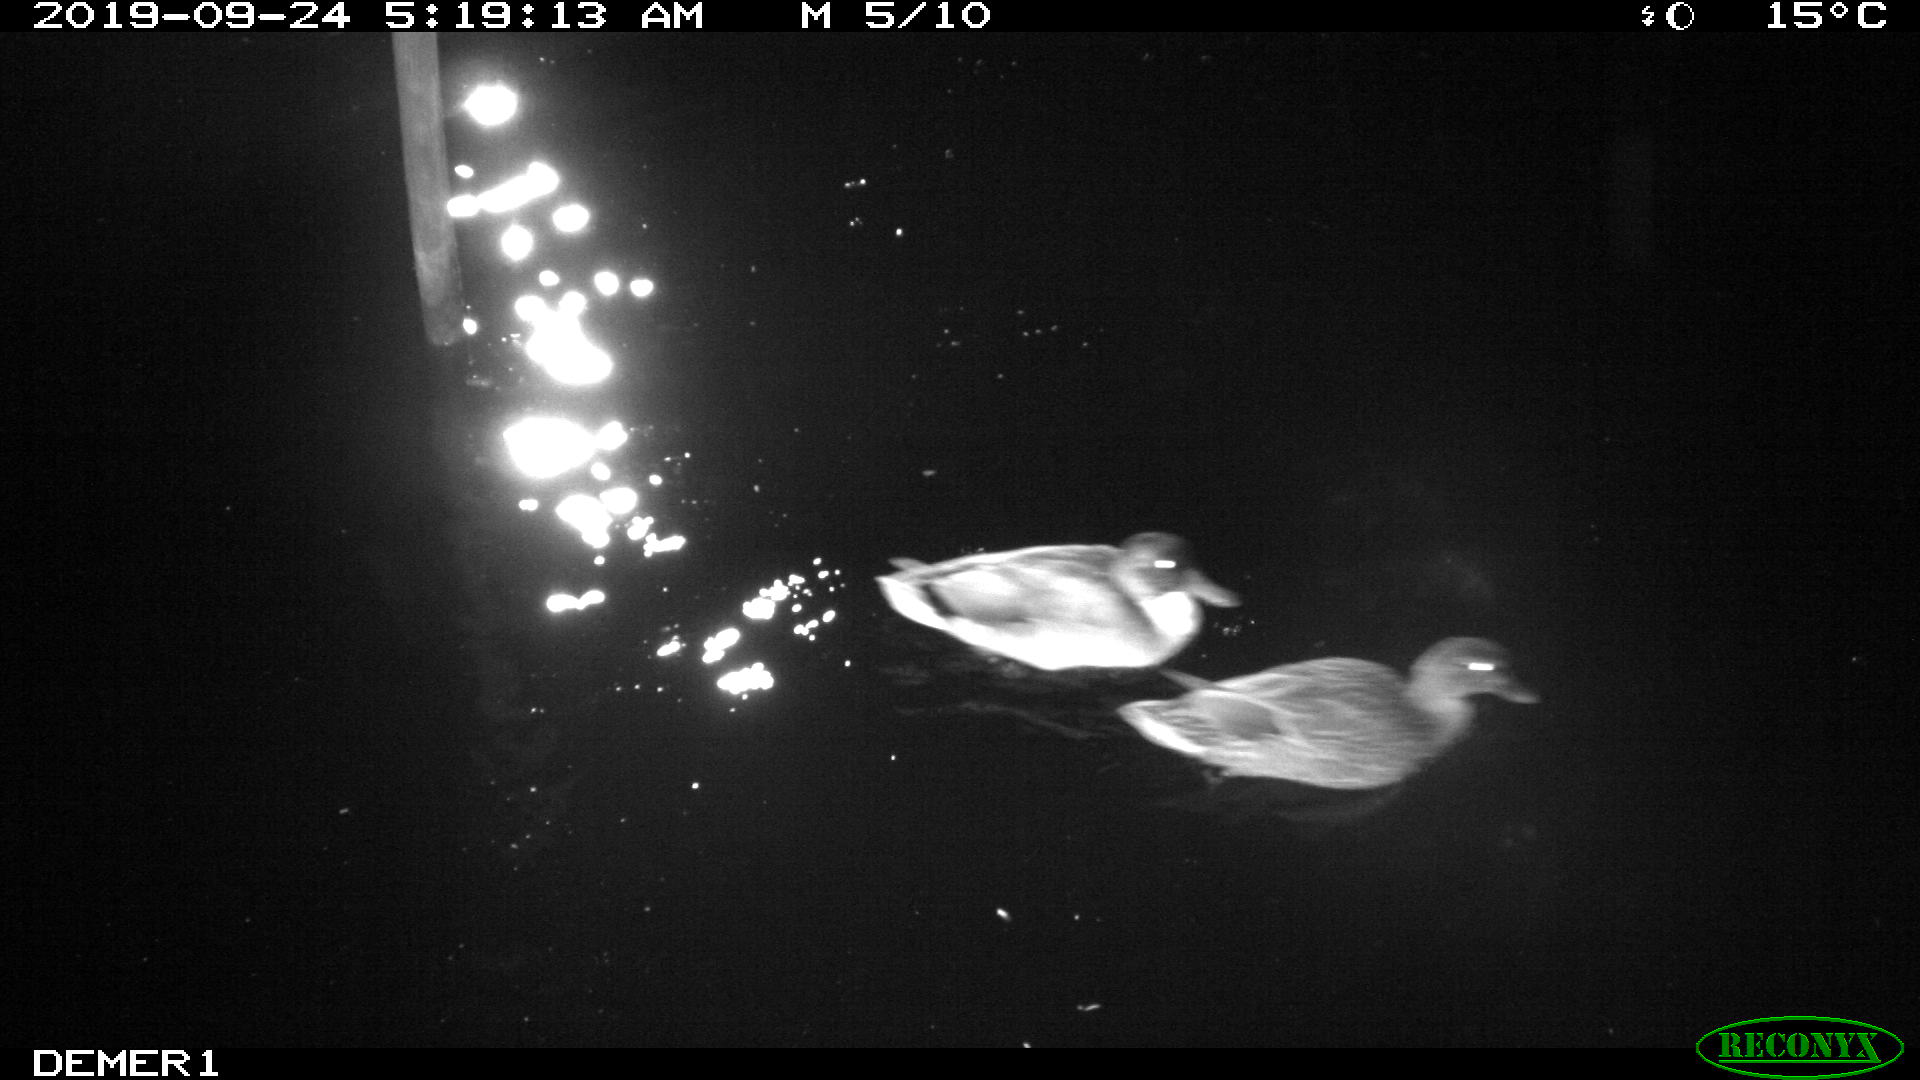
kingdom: Animalia
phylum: Chordata
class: Aves
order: Anseriformes
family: Anatidae
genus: Anas
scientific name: Anas platyrhynchos
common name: Mallard
